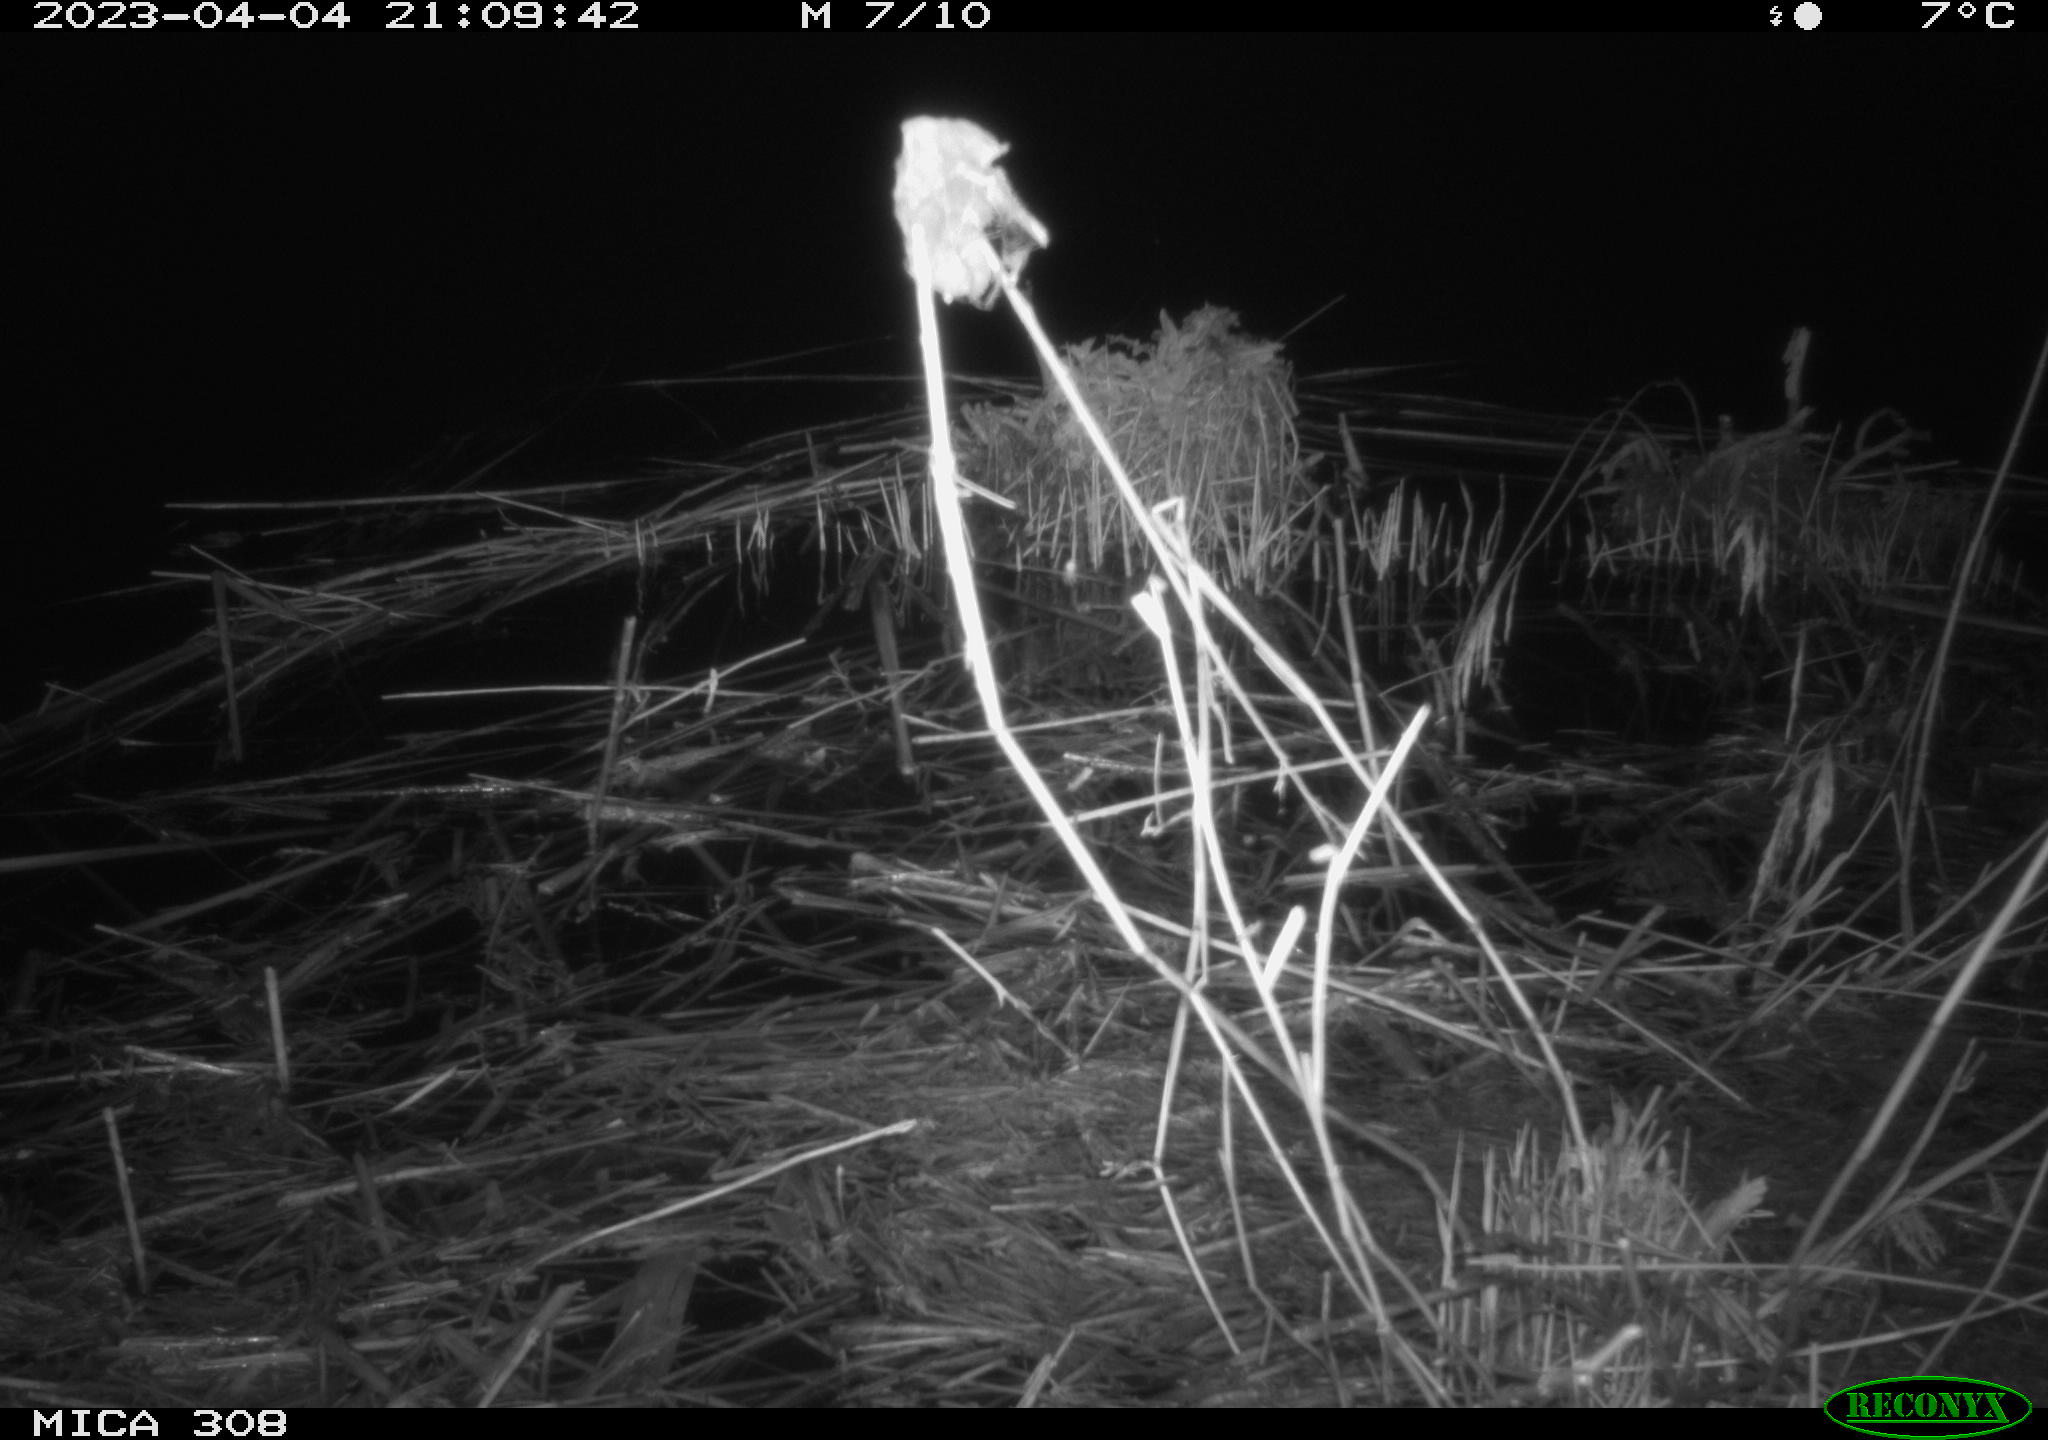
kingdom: Animalia
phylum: Chordata
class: Aves
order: Gruiformes
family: Rallidae
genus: Fulica
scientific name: Fulica atra
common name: Eurasian coot
